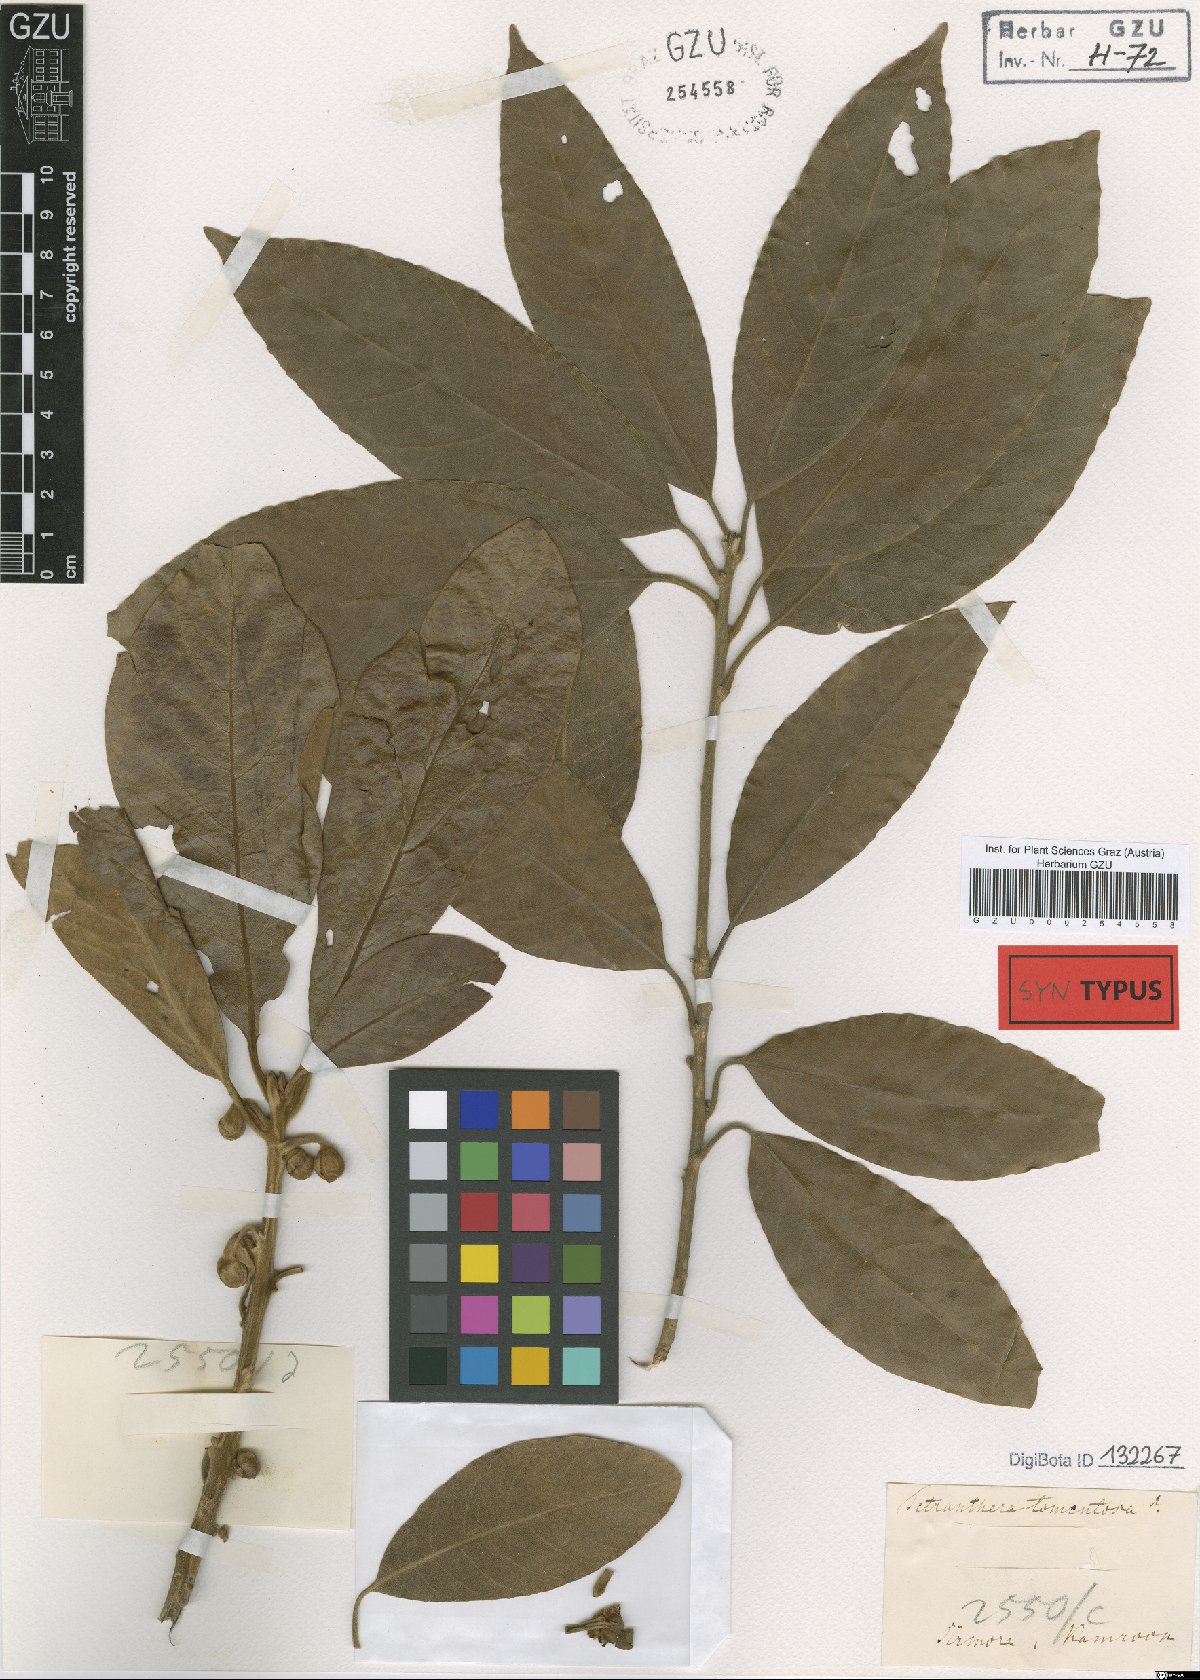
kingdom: Plantae
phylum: Tracheophyta
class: Magnoliopsida
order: Laurales
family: Lauraceae
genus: Litsea
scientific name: Litsea glutinosa
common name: Indian-laurel
